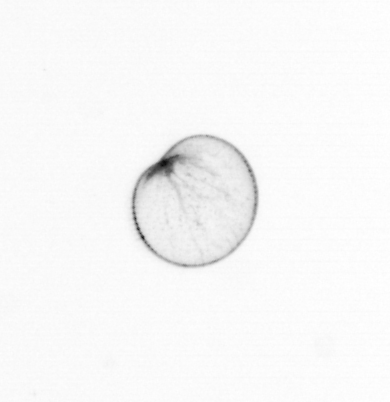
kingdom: Chromista
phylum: Myzozoa
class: Dinophyceae
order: Noctilucales
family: Noctilucaceae
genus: Noctiluca
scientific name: Noctiluca scintillans
